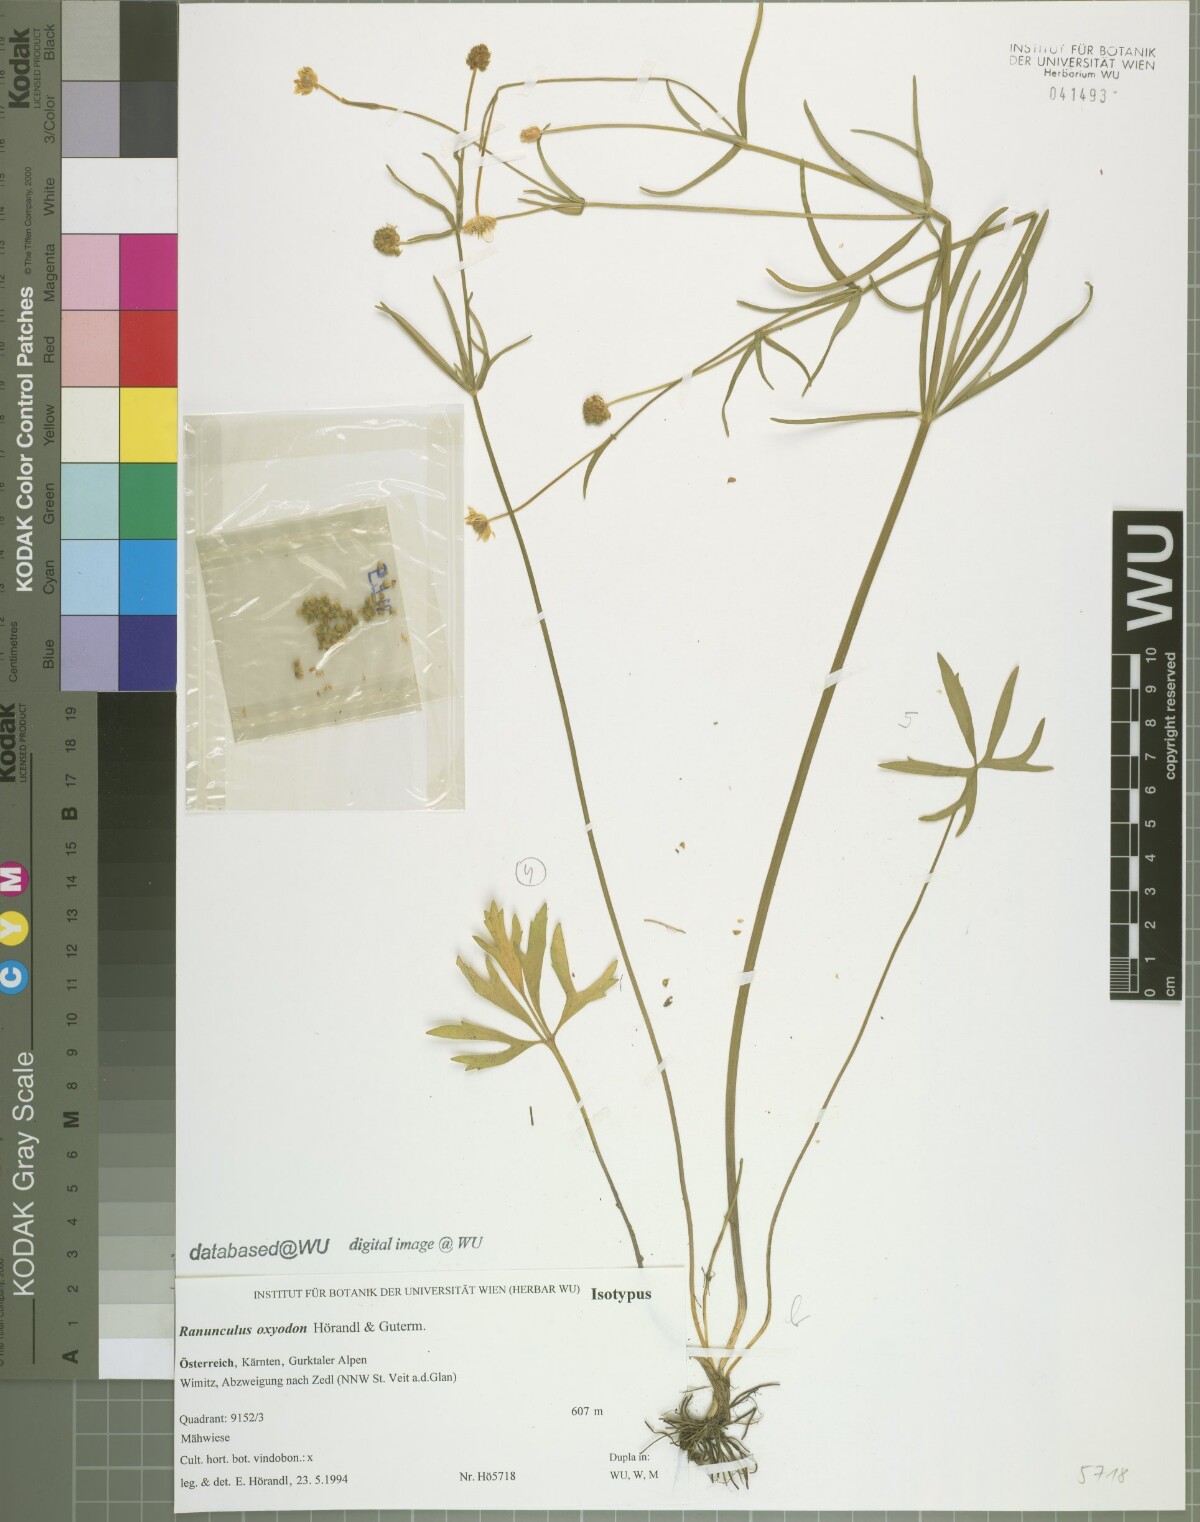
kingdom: Plantae
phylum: Tracheophyta
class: Magnoliopsida
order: Ranunculales
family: Ranunculaceae
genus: Ranunculus
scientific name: Ranunculus oxyodon
